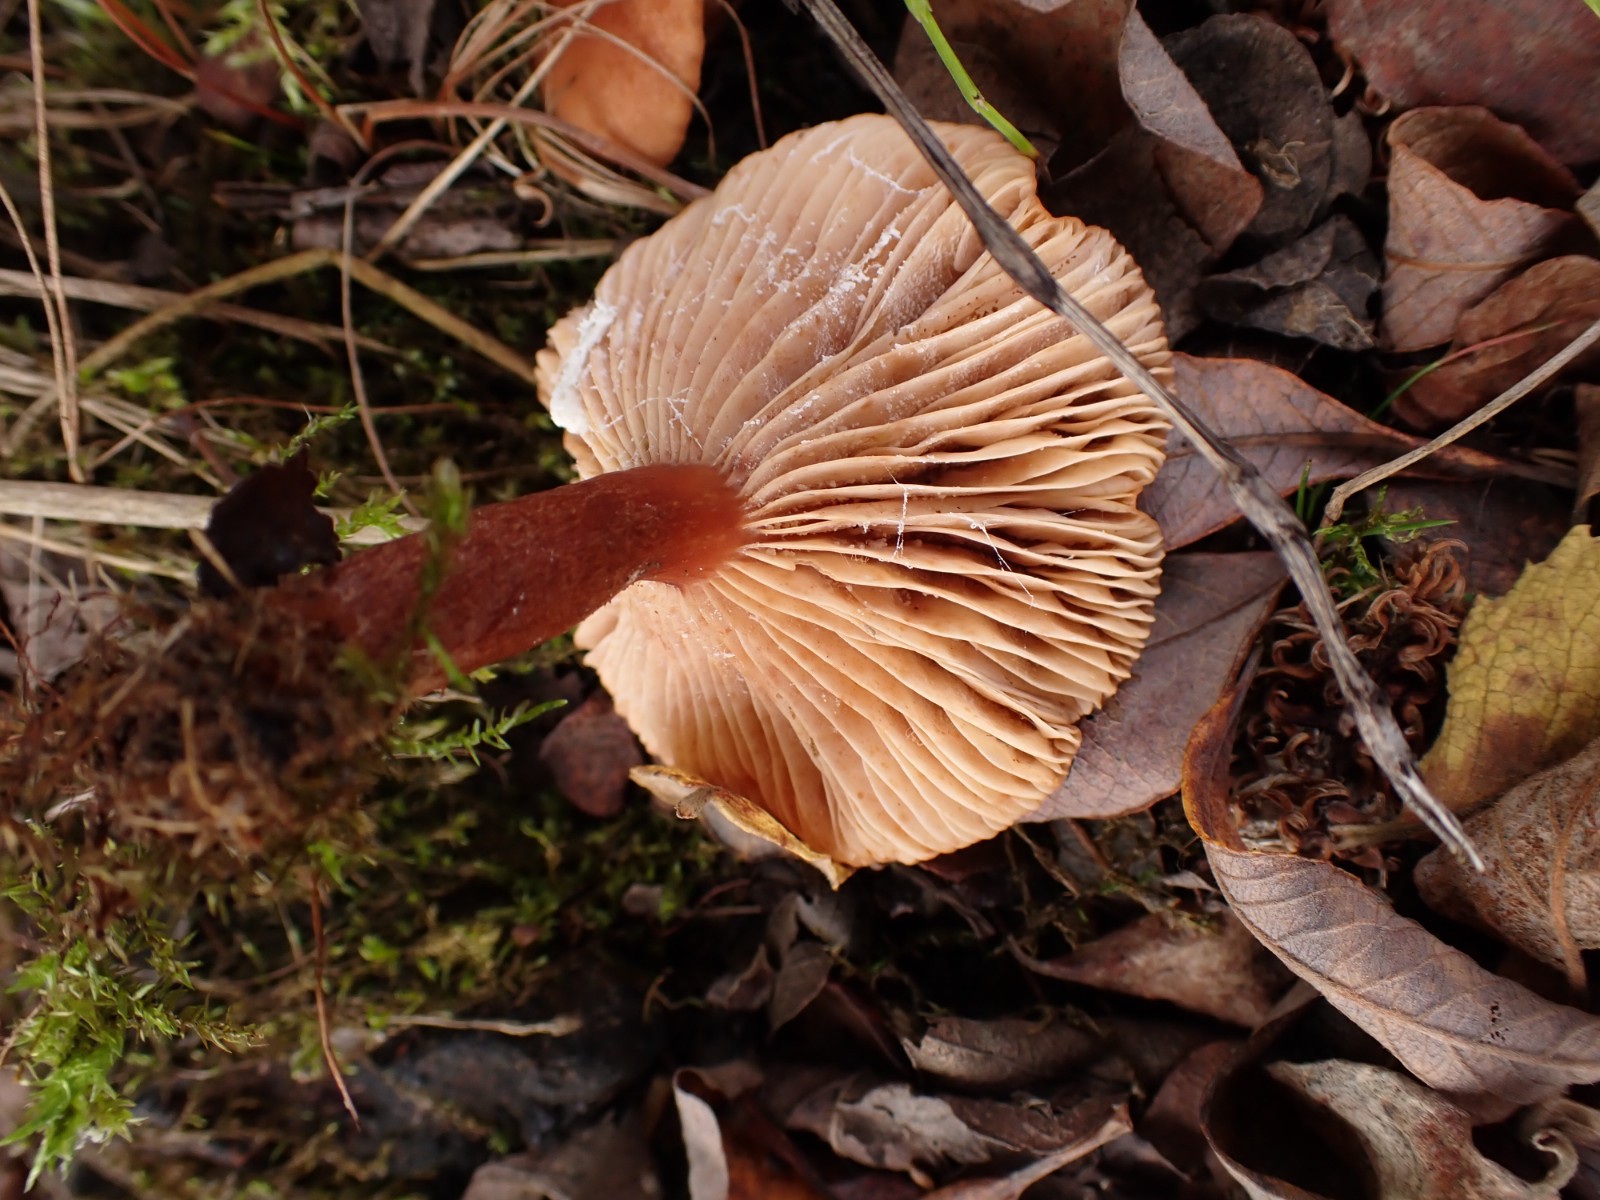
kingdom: Fungi
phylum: Basidiomycota
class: Agaricomycetes
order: Russulales
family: Russulaceae
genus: Lactarius
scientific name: Lactarius
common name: mælkehat
